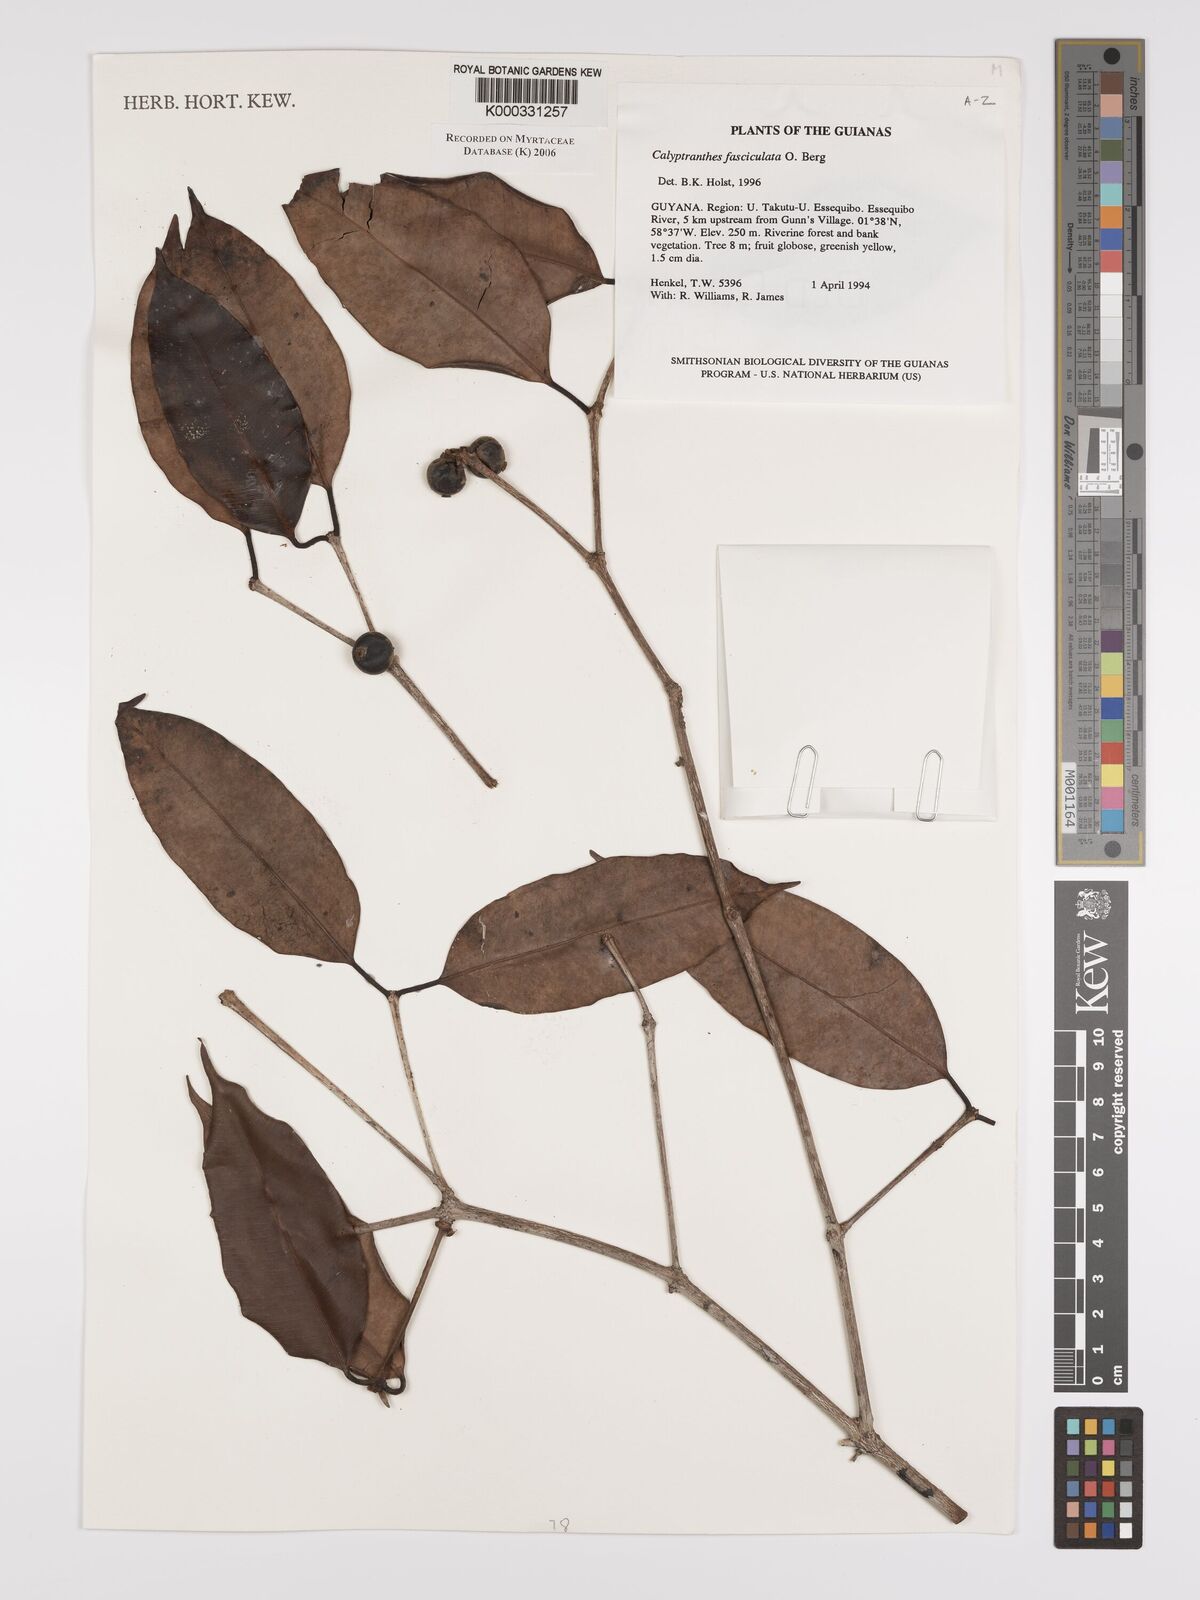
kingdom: Plantae
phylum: Tracheophyta
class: Magnoliopsida
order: Myrtales
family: Myrtaceae
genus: Myrcia
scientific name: Myrcia fasciculata
